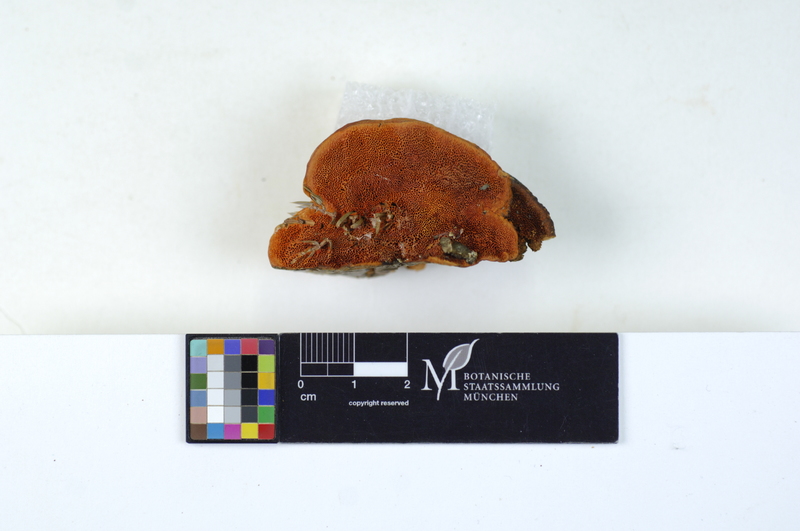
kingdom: Fungi
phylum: Basidiomycota
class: Agaricomycetes
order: Polyporales
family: Polyporaceae
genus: Trametes
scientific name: Trametes coccinea
